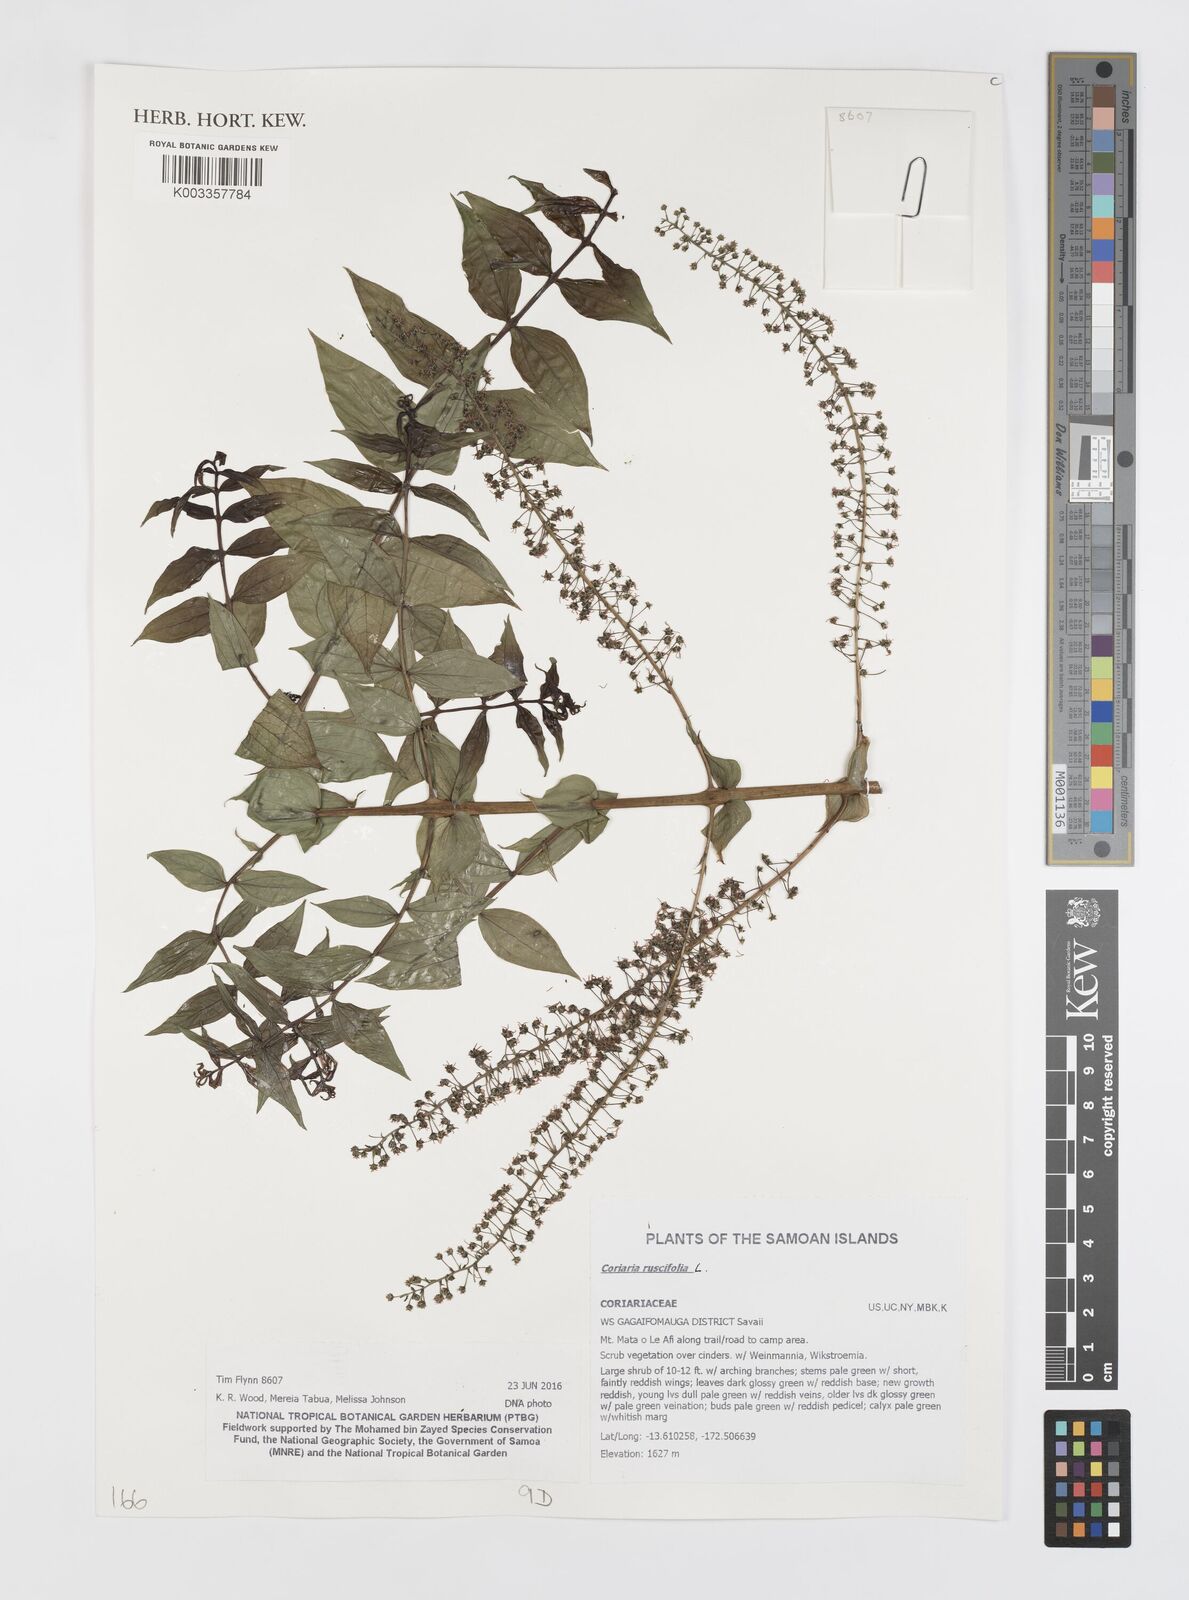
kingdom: Plantae
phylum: Tracheophyta
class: Magnoliopsida
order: Cucurbitales
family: Coriariaceae
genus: Coriaria
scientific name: Coriaria ruscifolia
